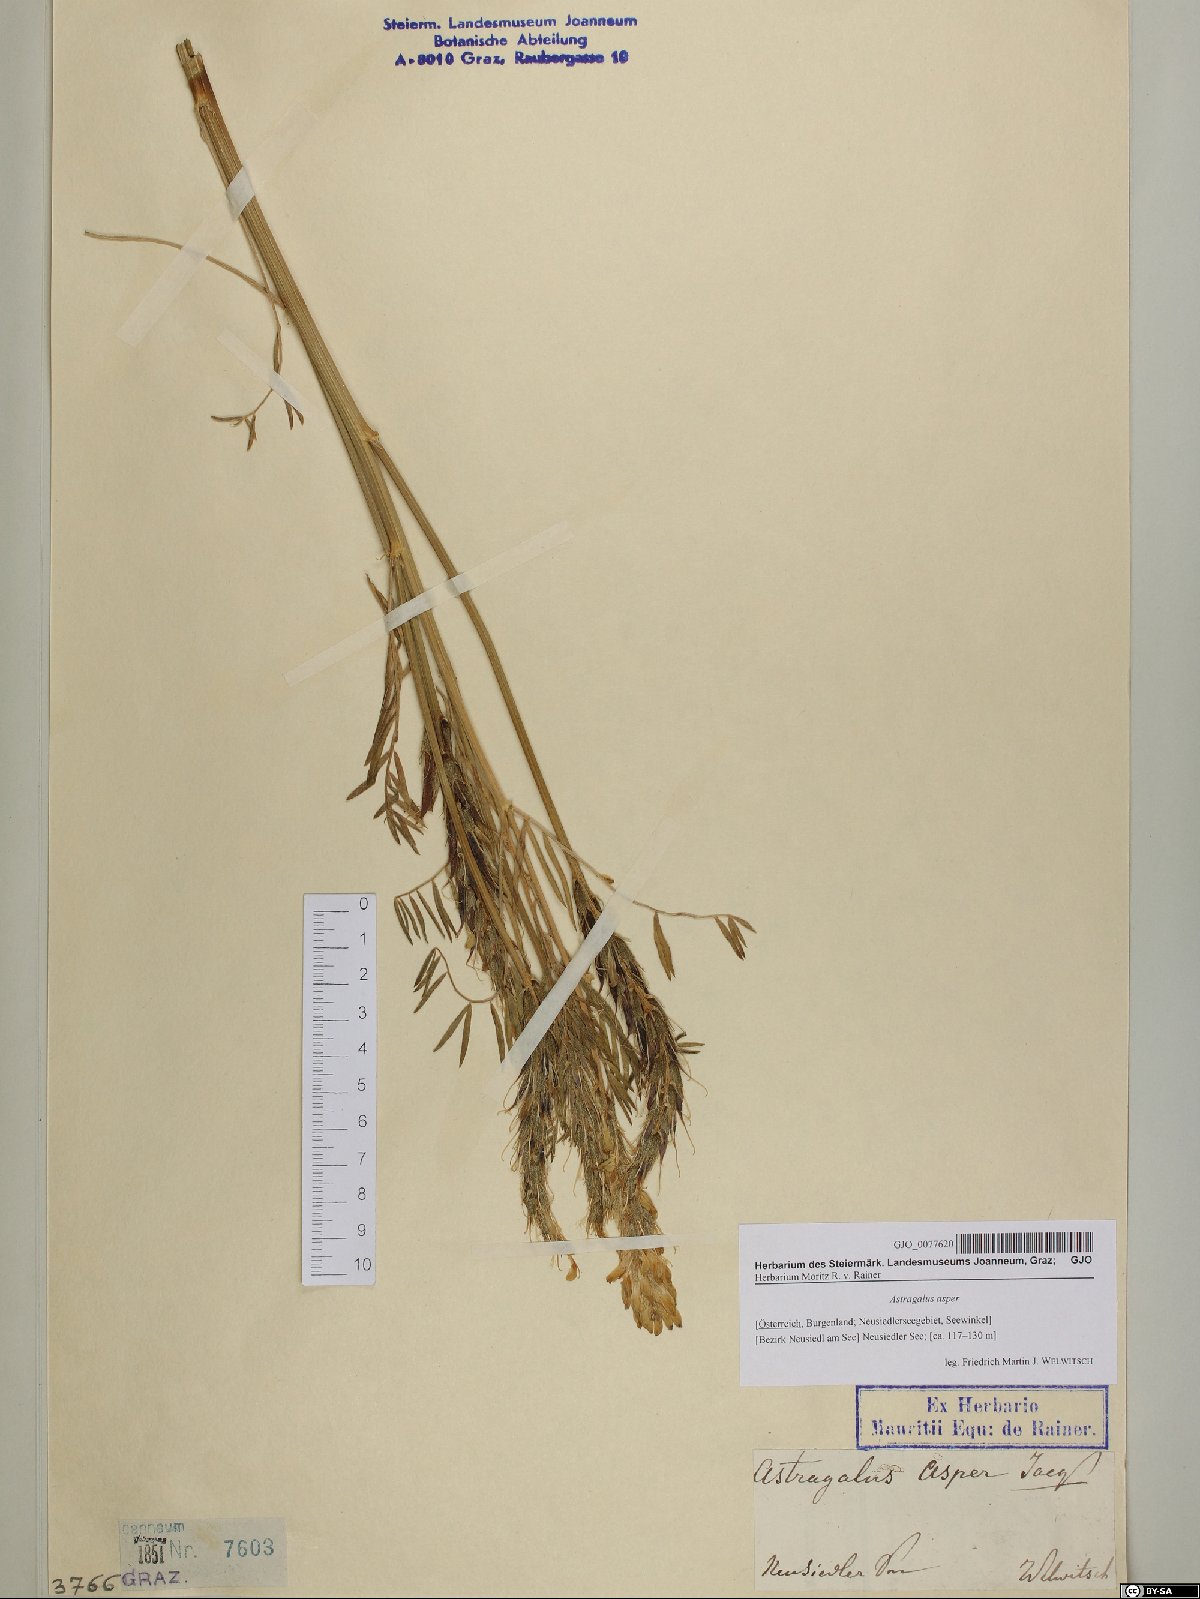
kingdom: Plantae
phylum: Tracheophyta
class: Magnoliopsida
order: Fabales
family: Fabaceae
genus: Astragalus
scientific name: Astragalus asper
